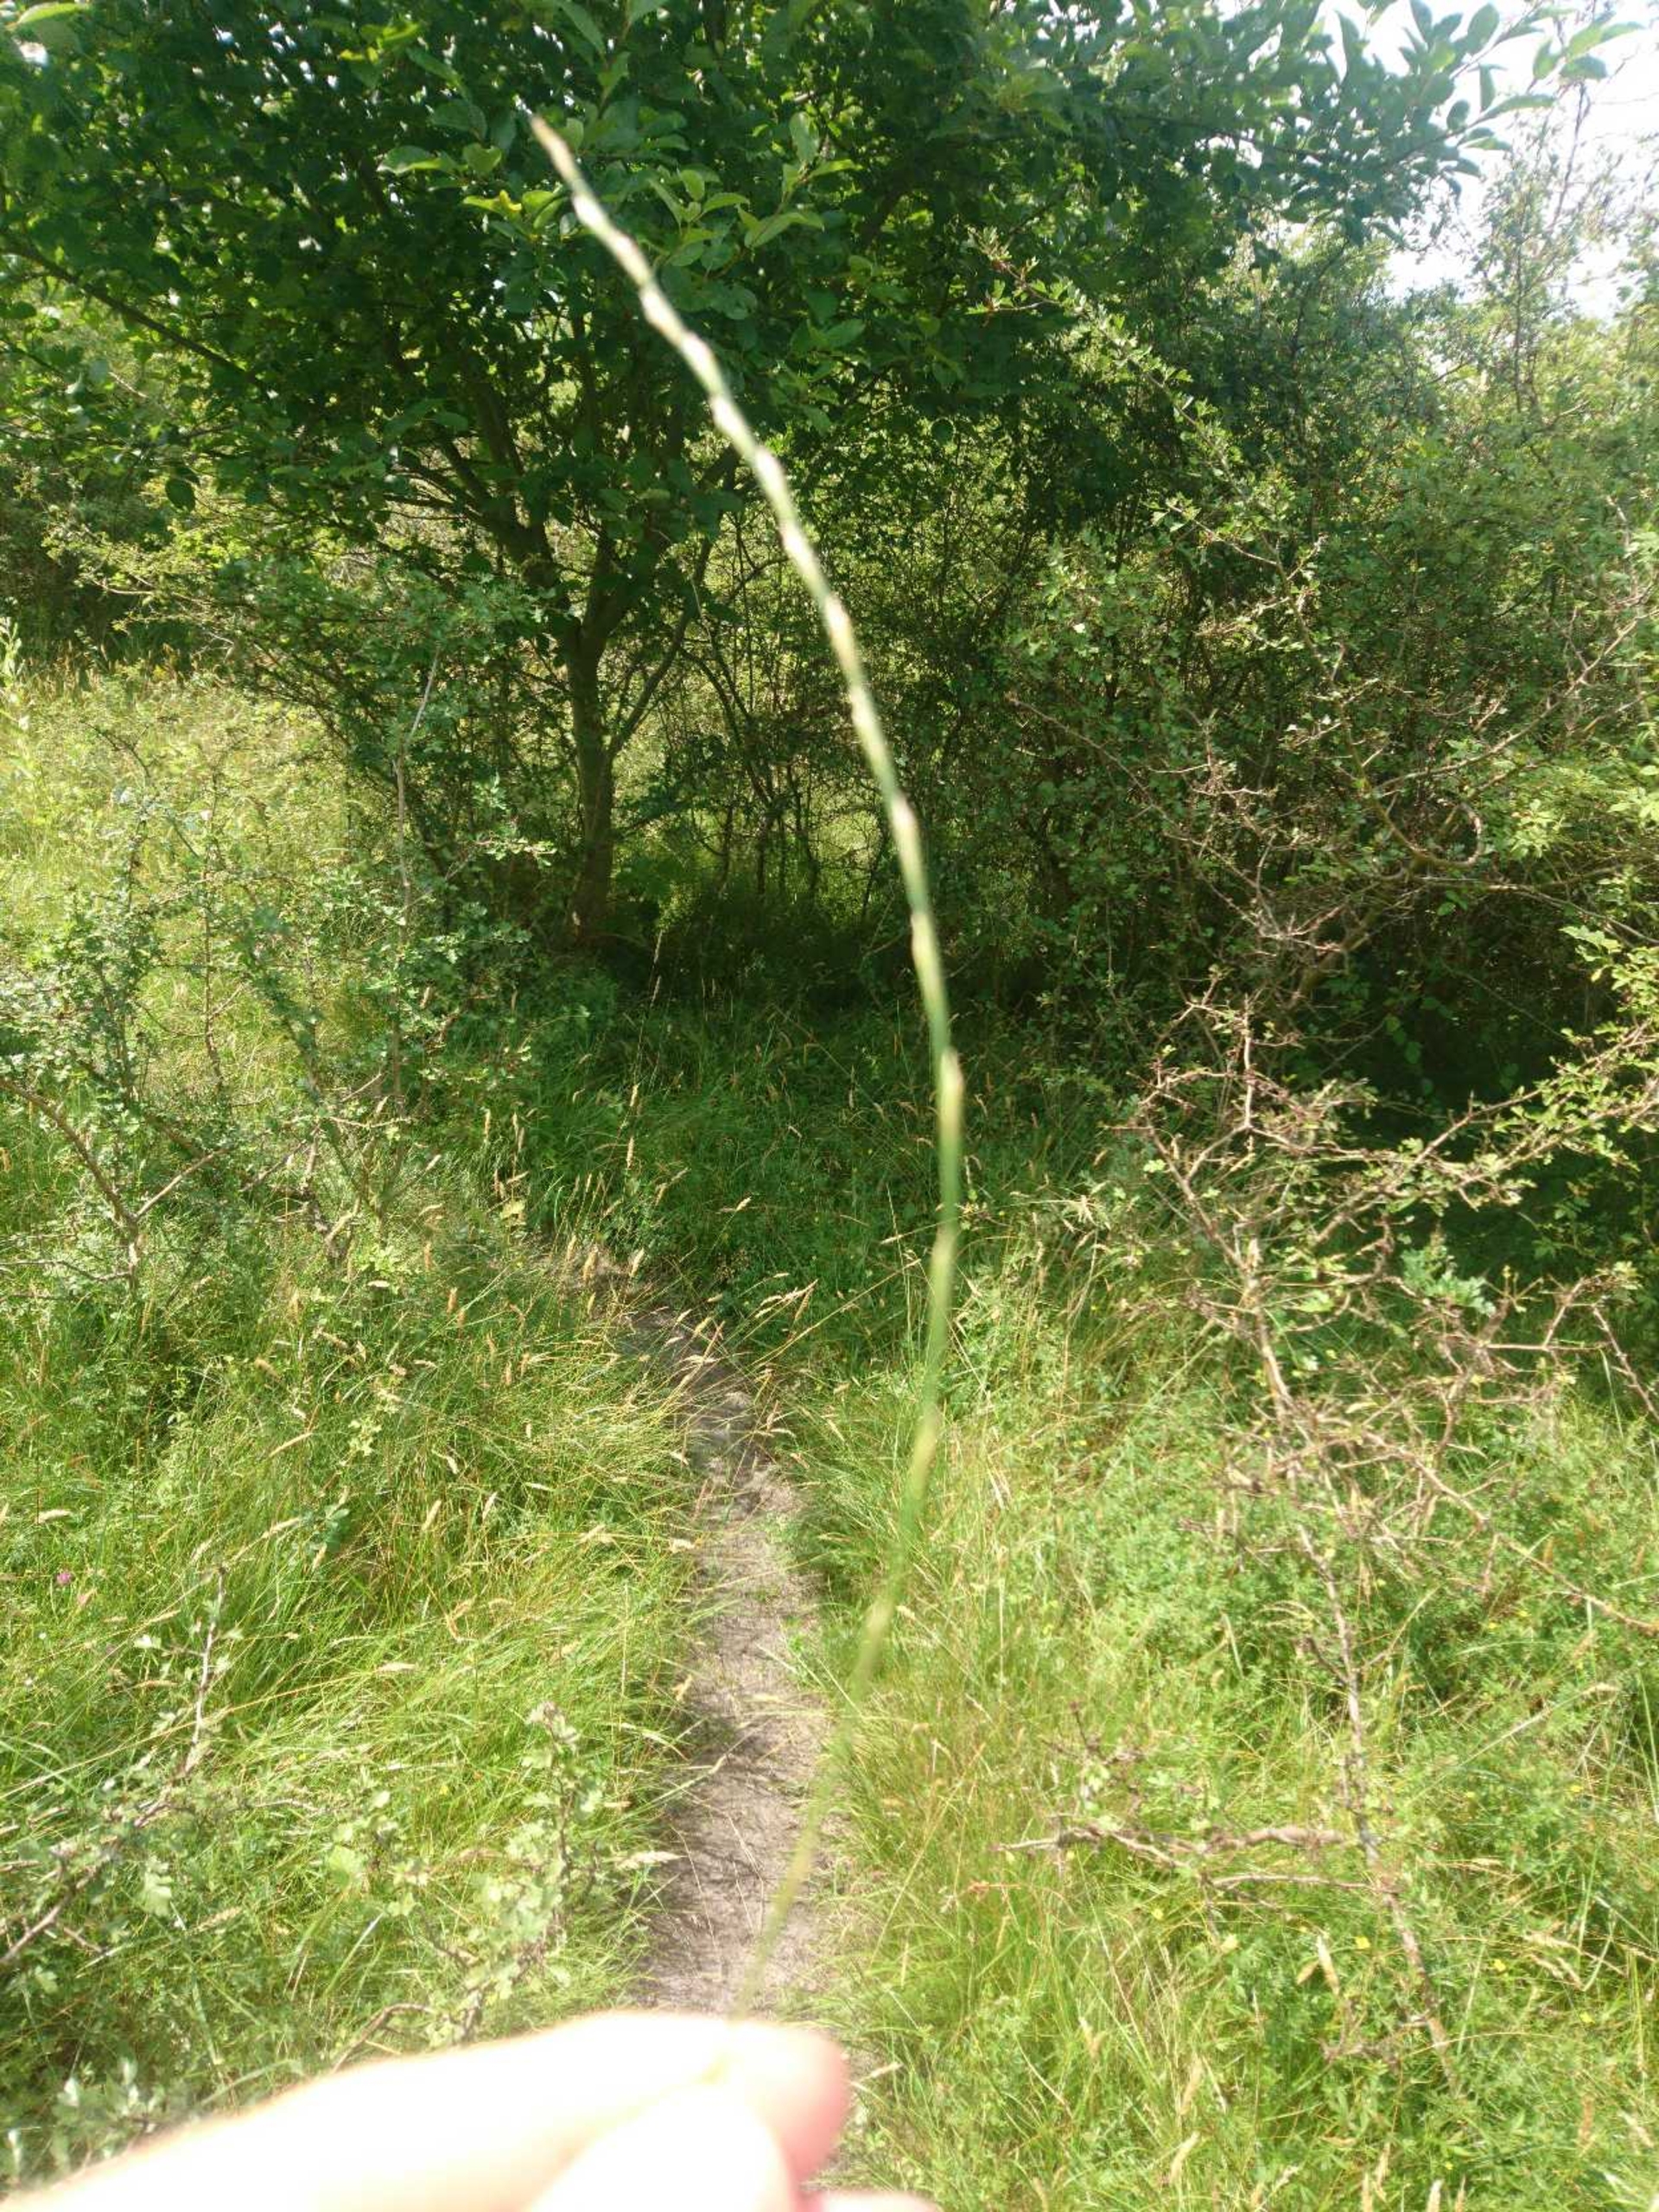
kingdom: Plantae
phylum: Tracheophyta
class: Liliopsida
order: Poales
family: Poaceae
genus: Lolium
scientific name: Lolium perenne
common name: Almindelig rajgræs
